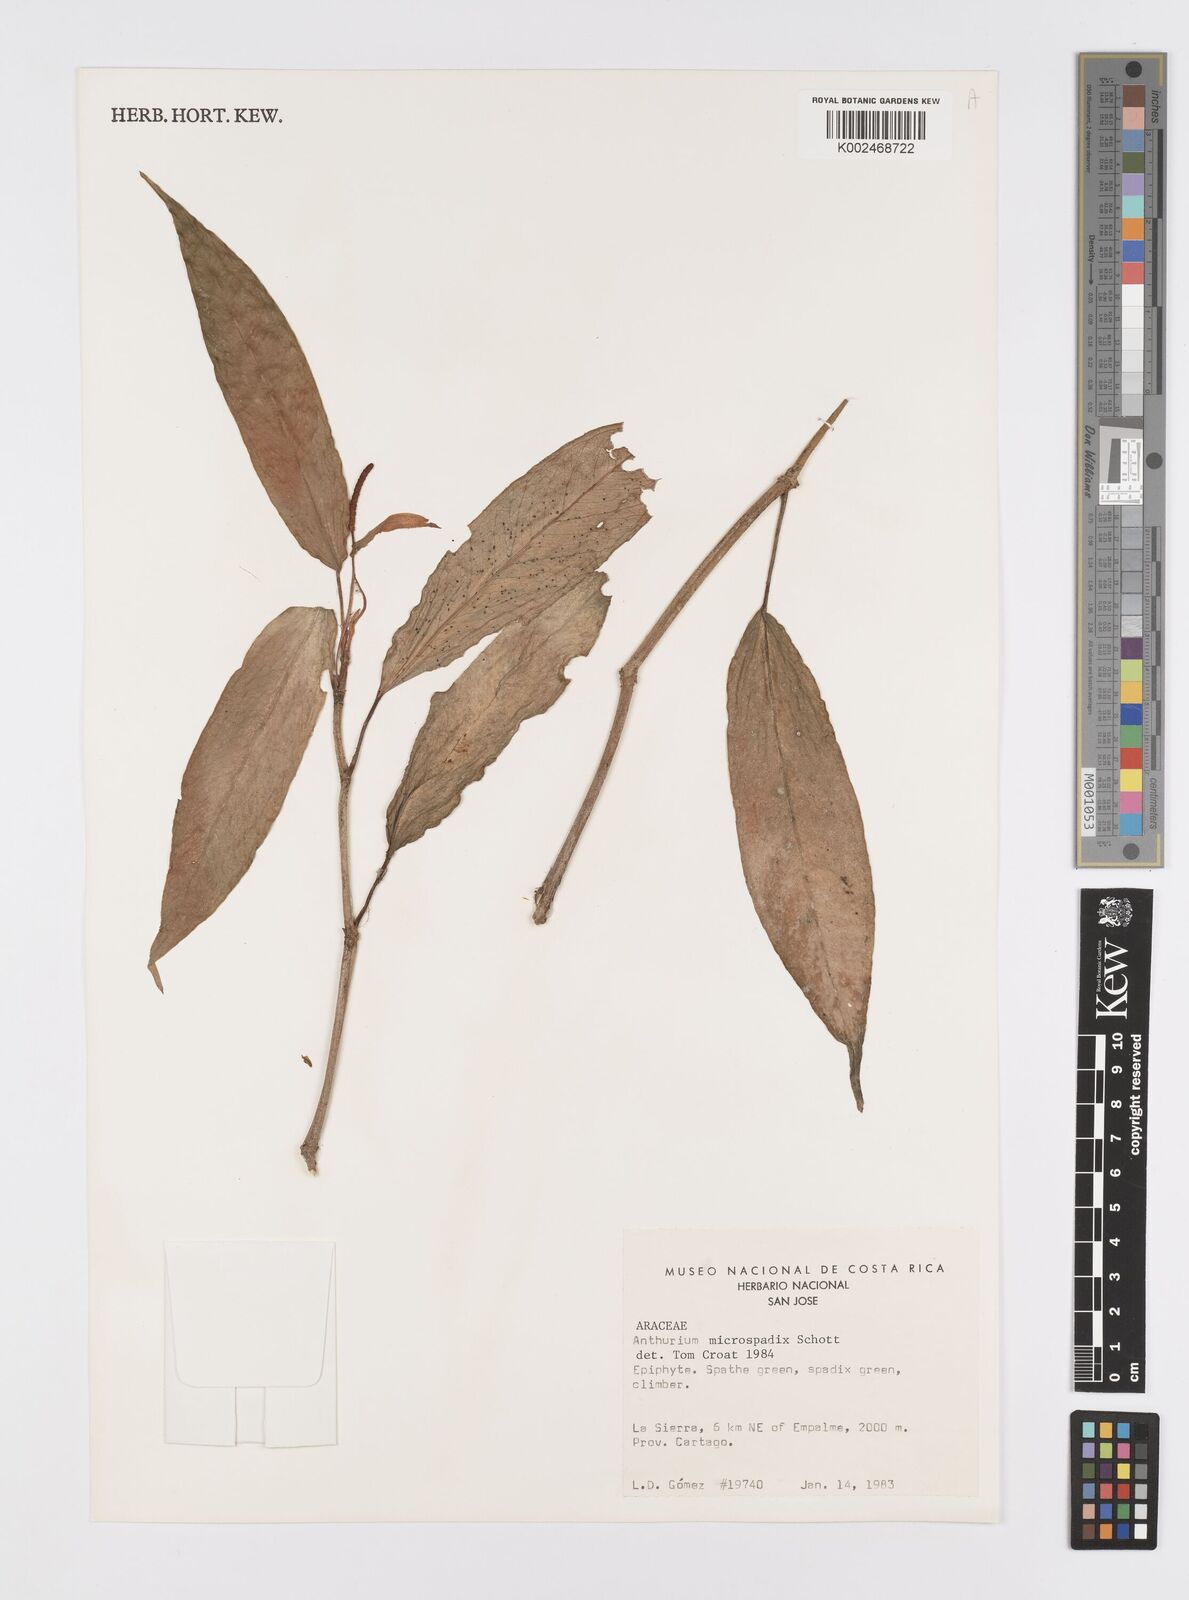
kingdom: Plantae
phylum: Tracheophyta
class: Liliopsida
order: Alismatales
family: Araceae
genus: Anthurium
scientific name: Anthurium microspadix
